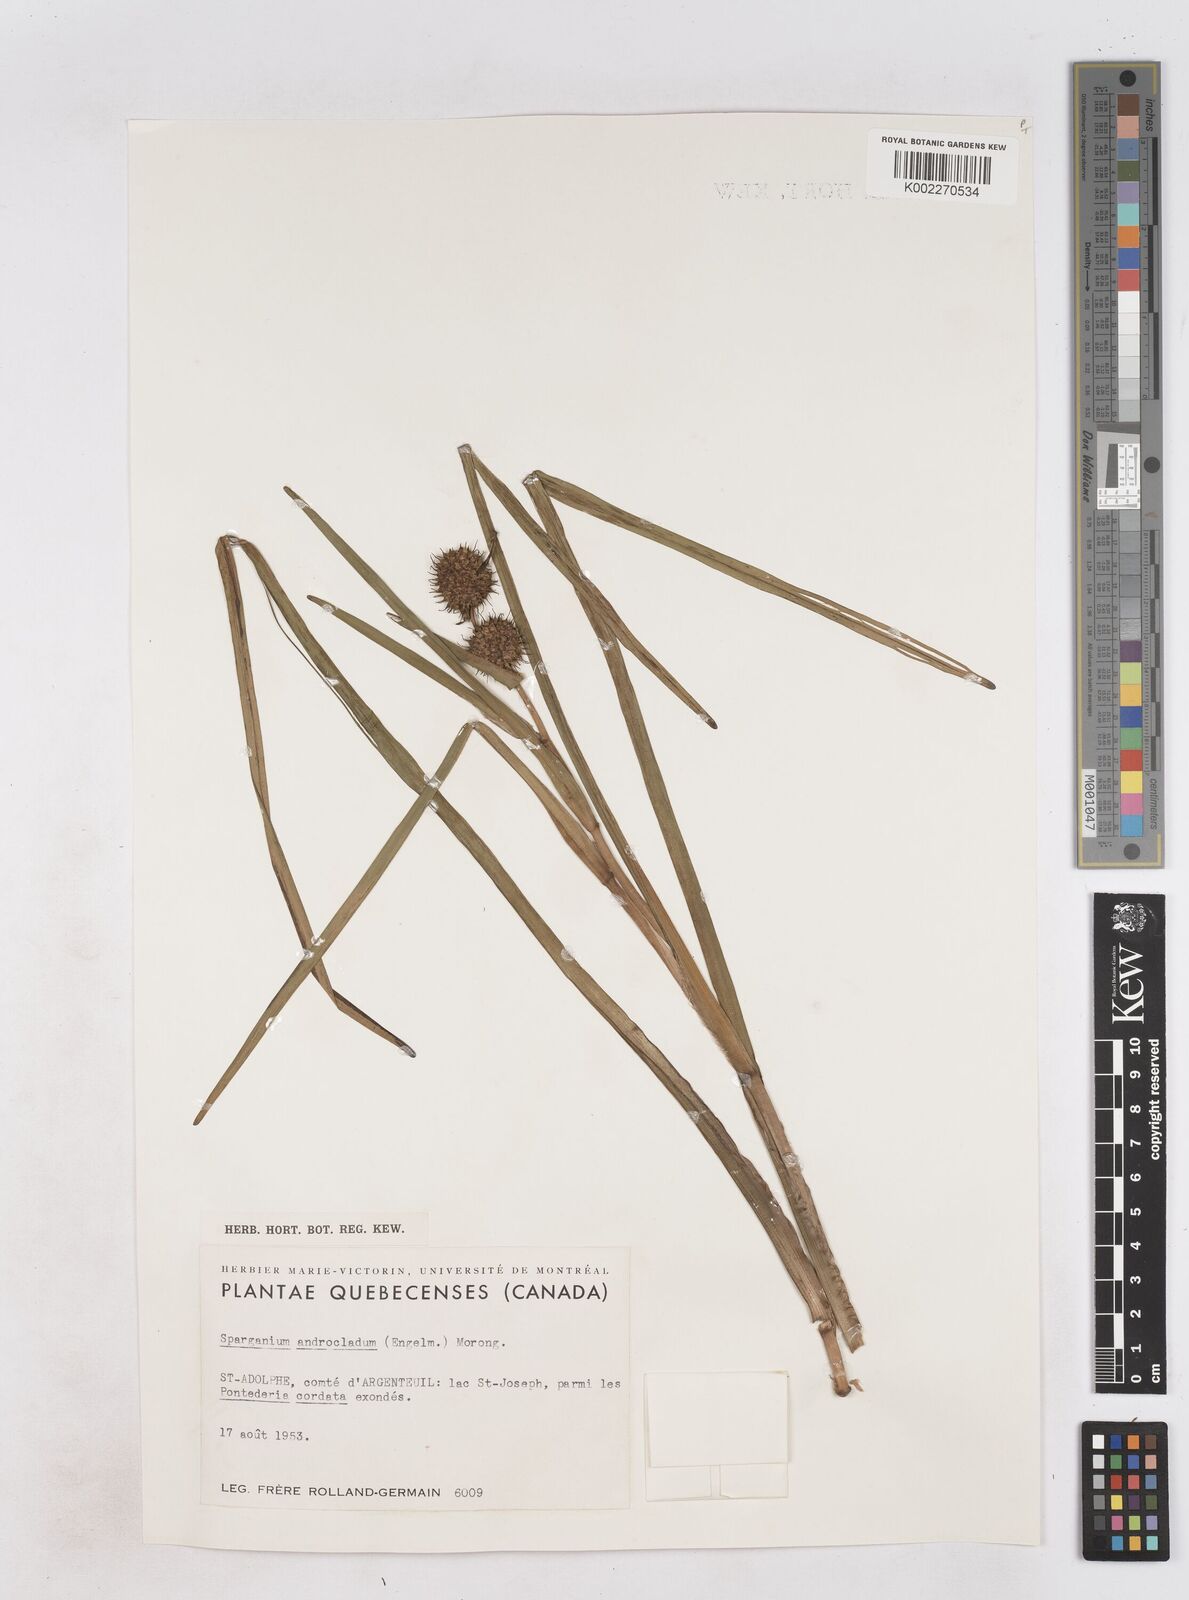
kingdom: Plantae
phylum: Tracheophyta
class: Liliopsida
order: Poales
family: Typhaceae
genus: Sparganium
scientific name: Sparganium androcladum
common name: Branched burreed
